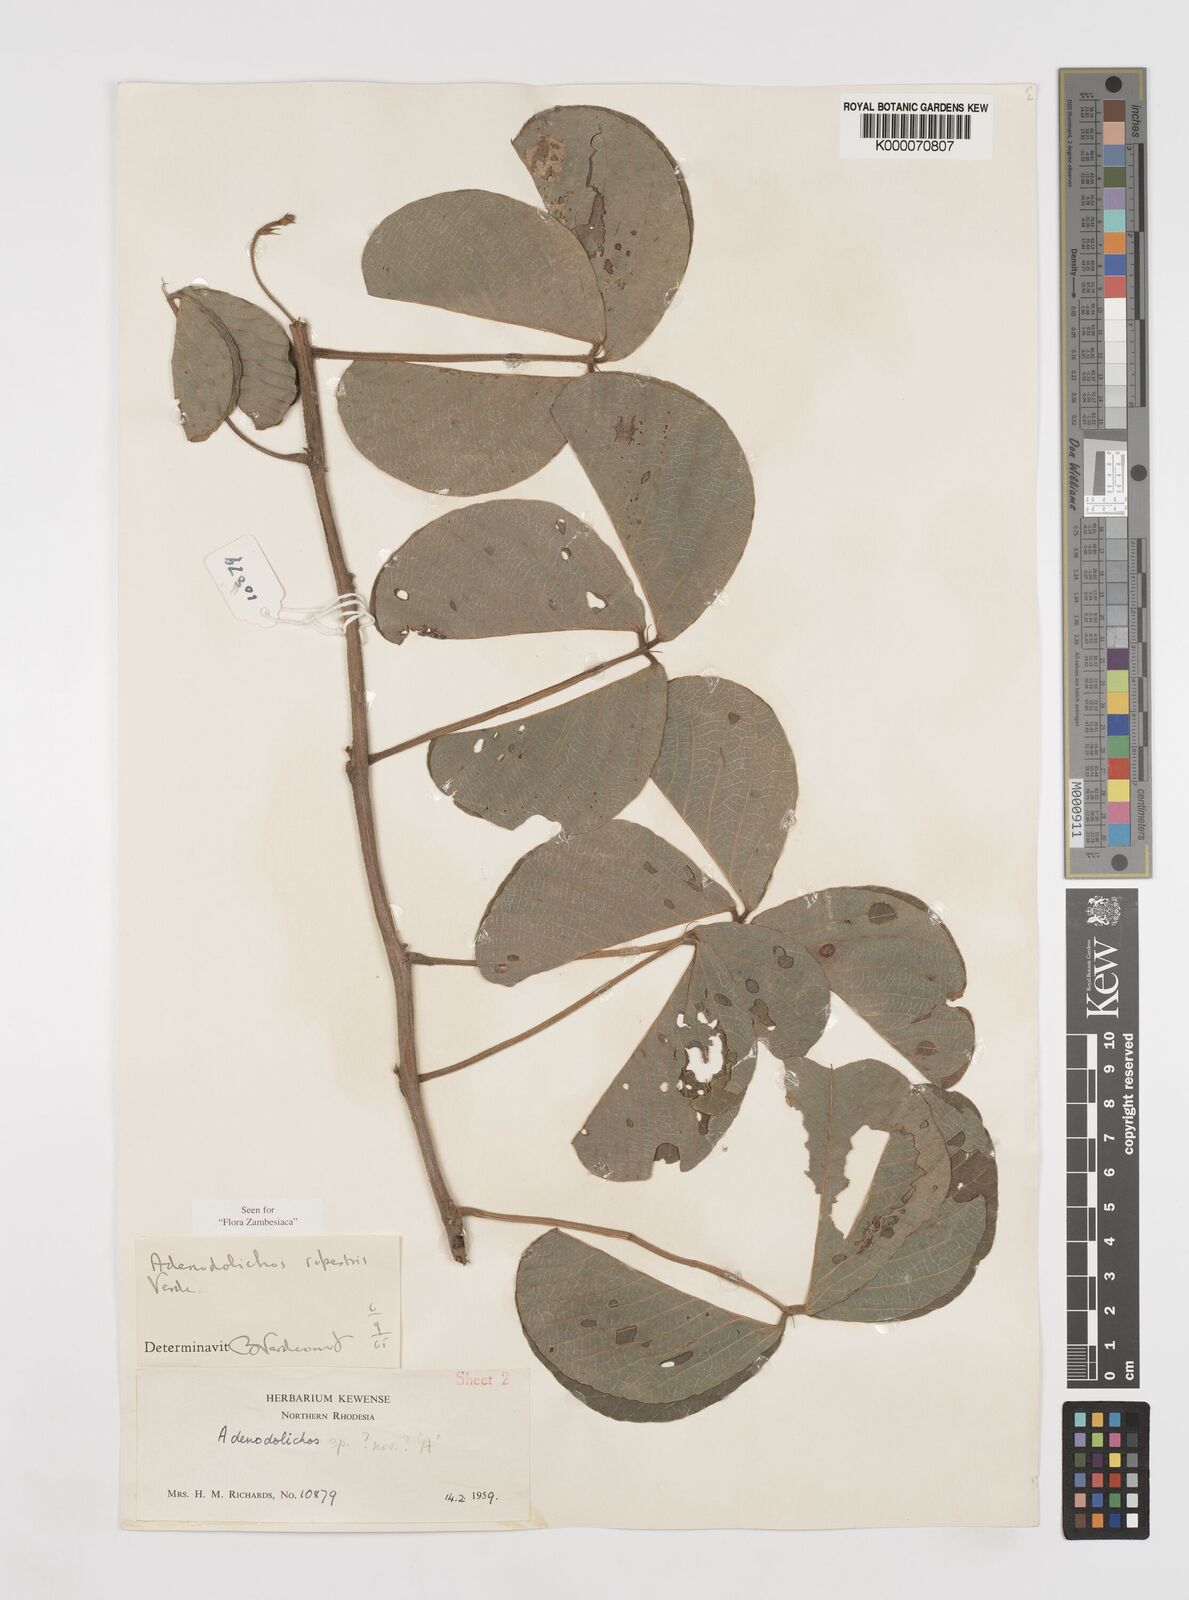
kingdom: Plantae
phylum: Tracheophyta
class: Magnoliopsida
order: Fabales
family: Fabaceae
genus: Adenodolichos
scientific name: Adenodolichos rupestris
